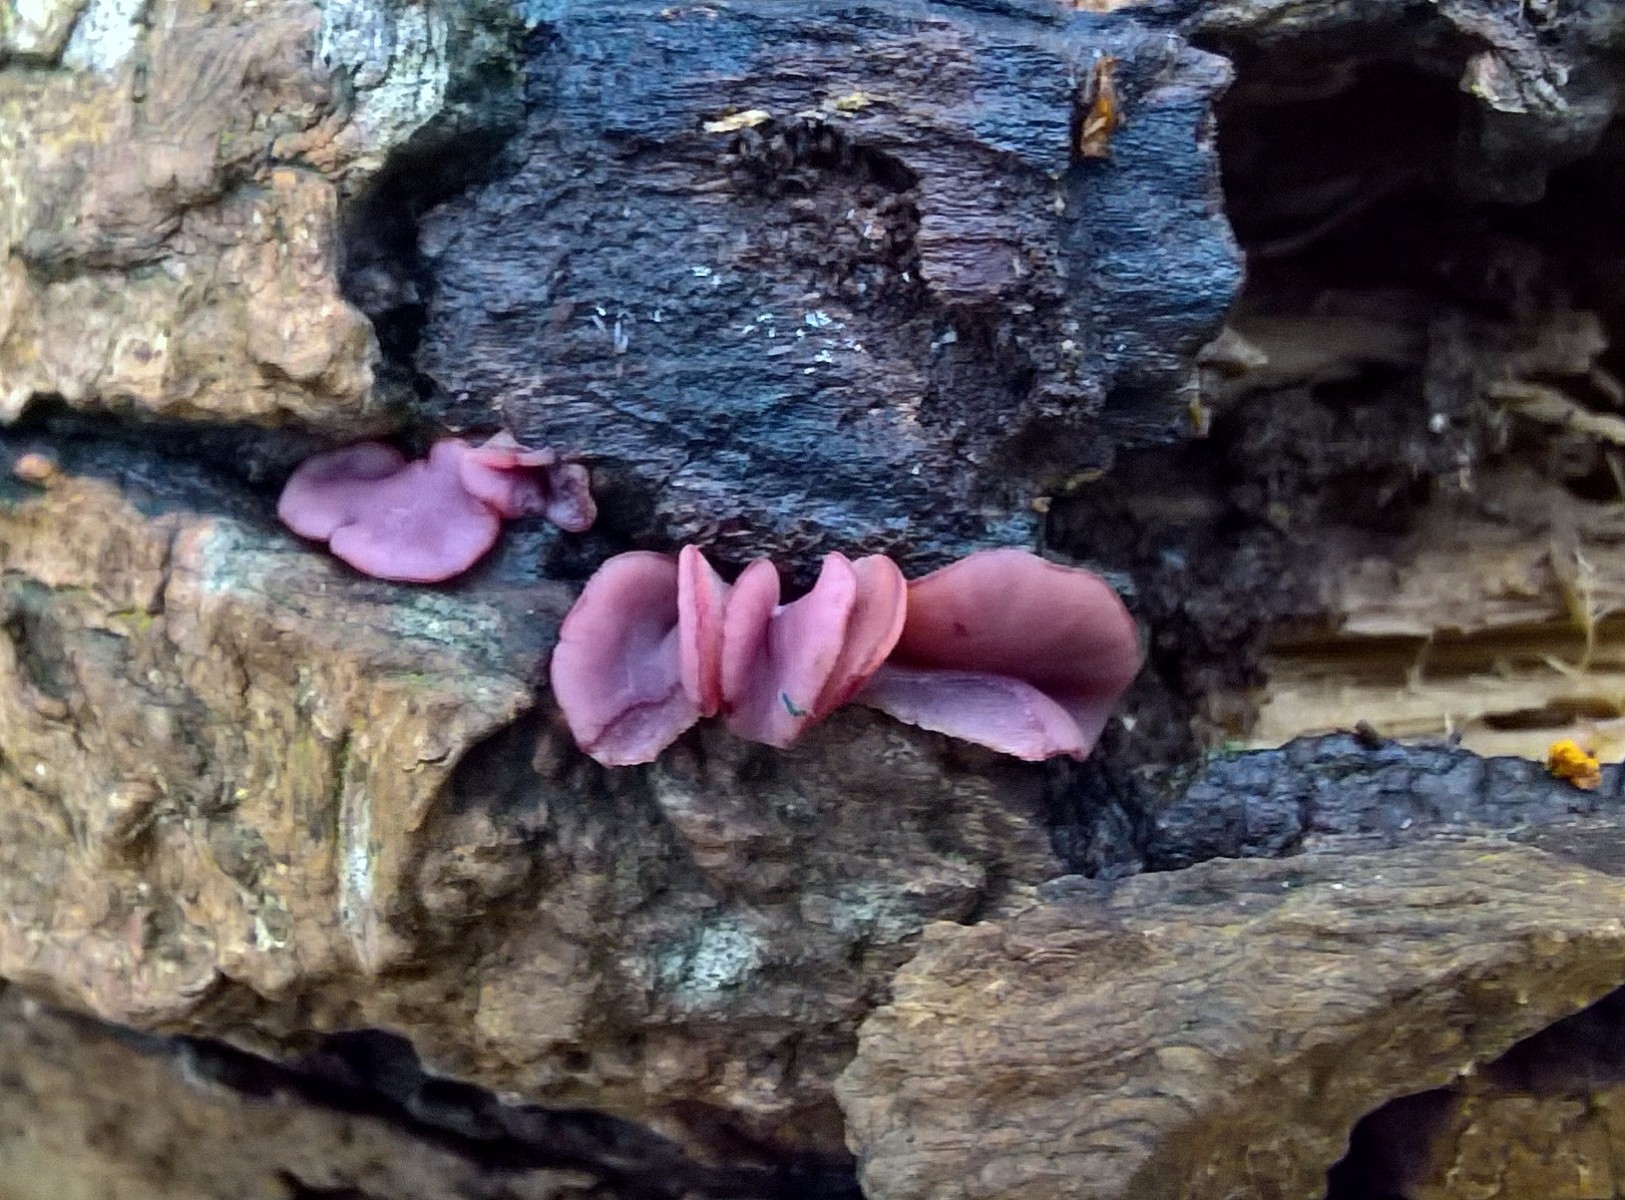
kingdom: Fungi
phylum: Ascomycota
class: Leotiomycetes
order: Helotiales
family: Gelatinodiscaceae
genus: Ascocoryne
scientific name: Ascocoryne cylichnium
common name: stor sejskive
